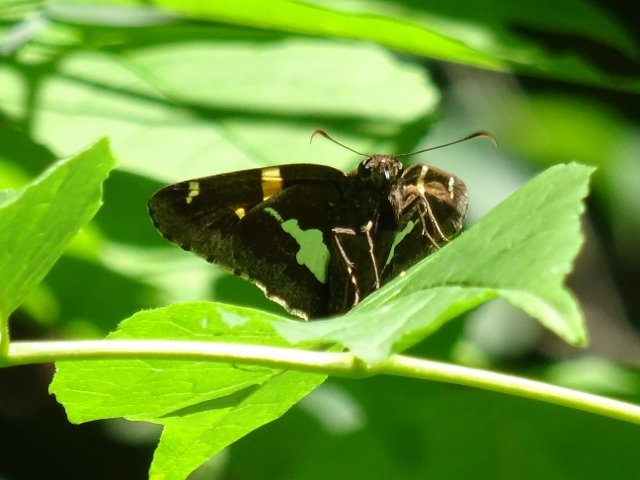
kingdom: Animalia
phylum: Arthropoda
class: Insecta
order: Lepidoptera
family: Hesperiidae
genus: Epargyreus
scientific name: Epargyreus clarus
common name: Silver-spotted Skipper
